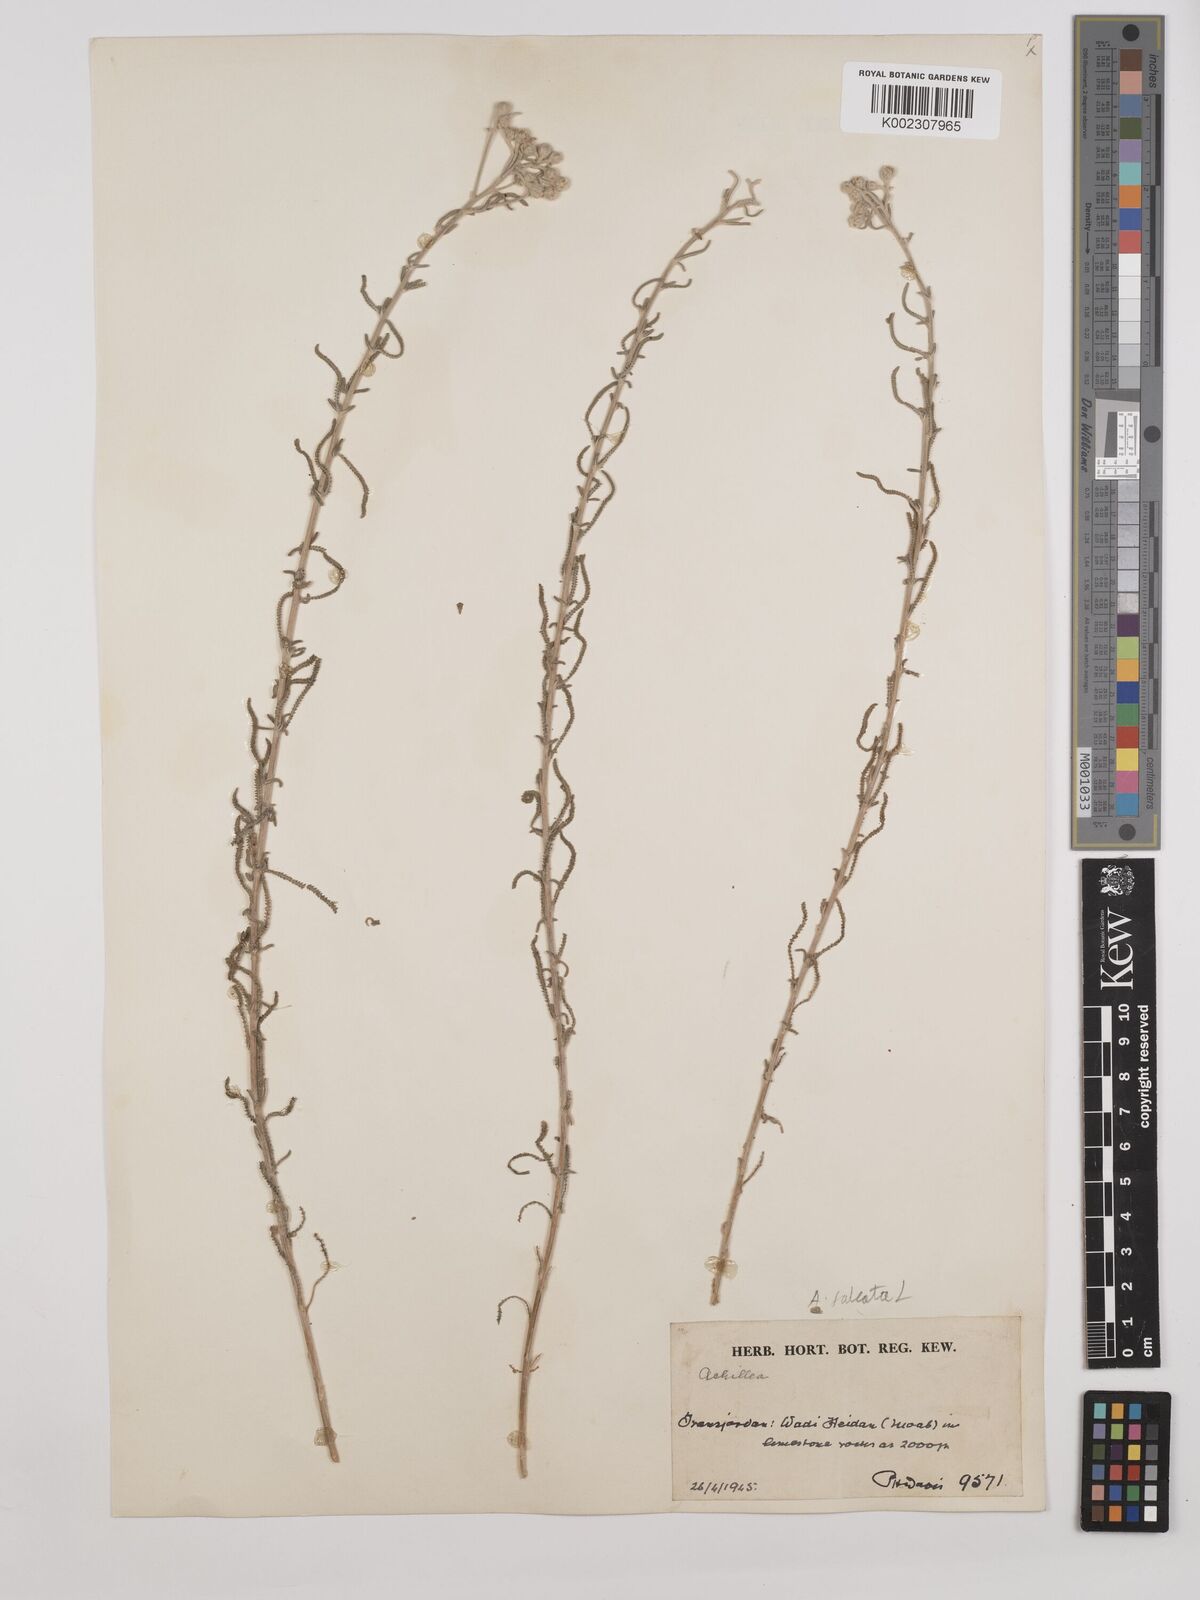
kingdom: Plantae
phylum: Tracheophyta
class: Magnoliopsida
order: Asterales
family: Asteraceae
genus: Achillea
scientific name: Achillea falcata
